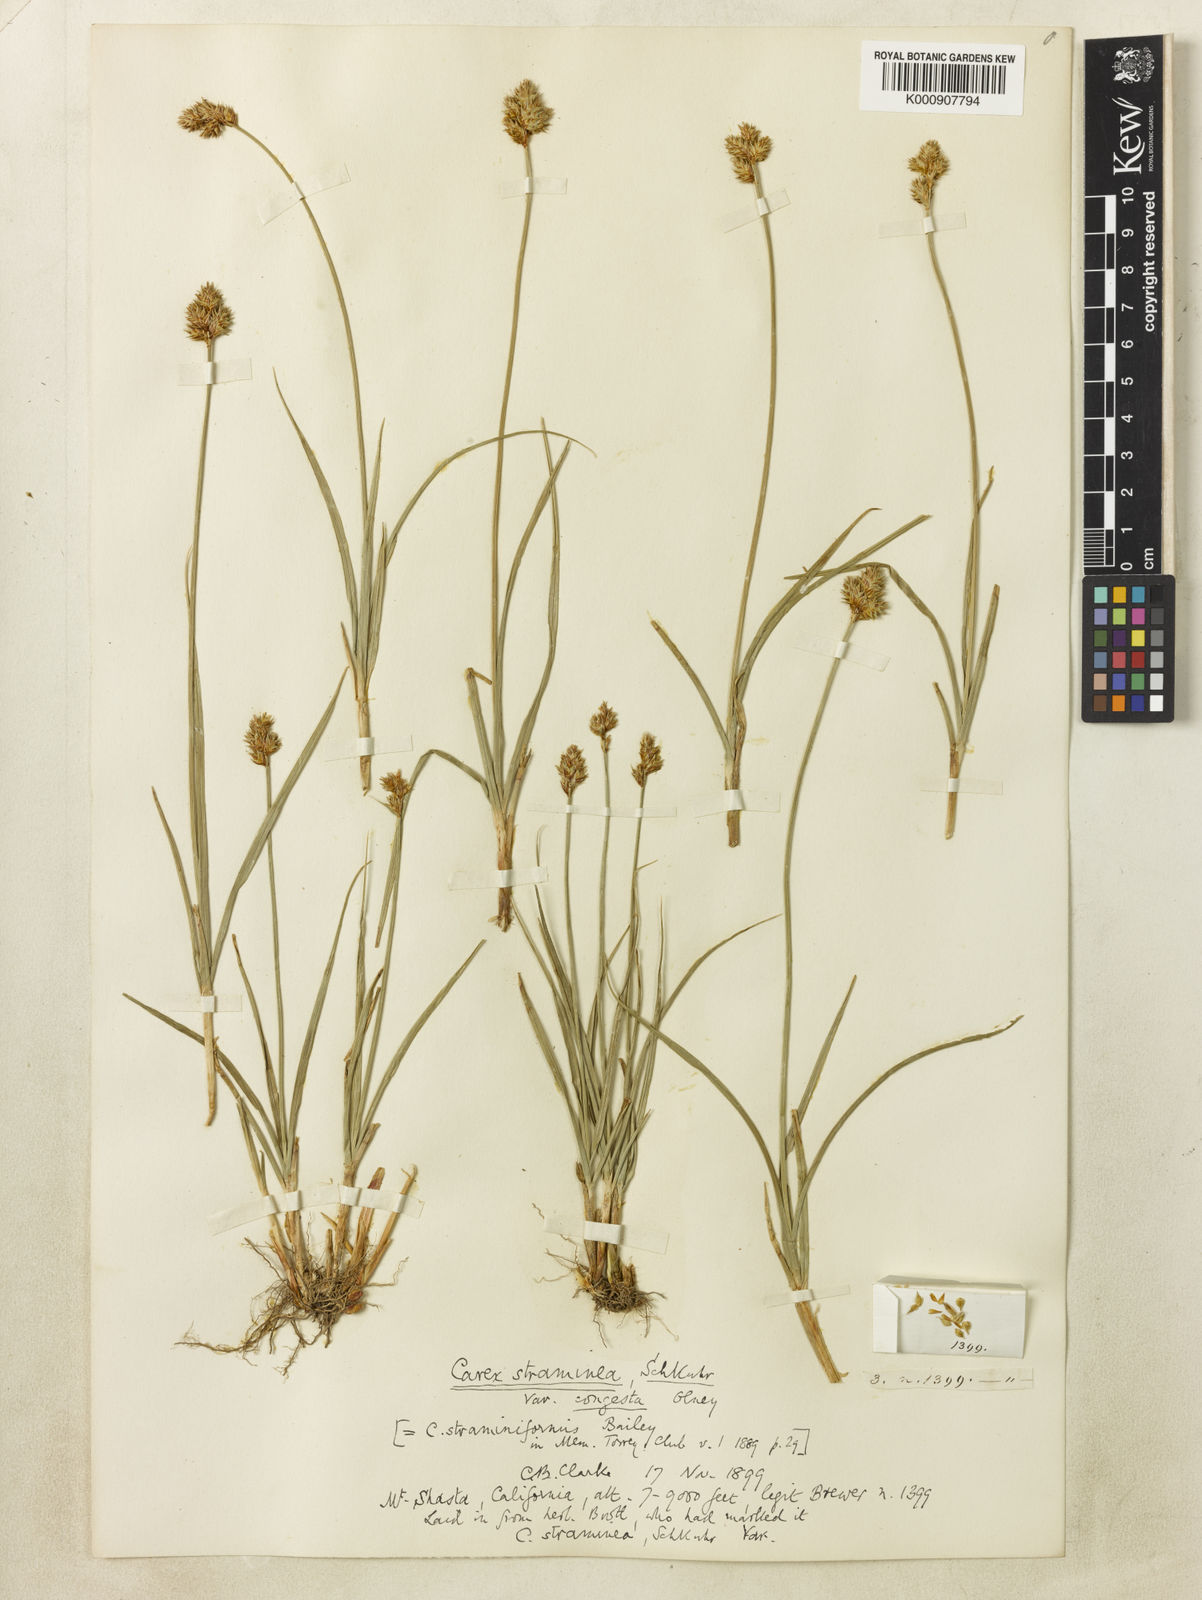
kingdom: Plantae
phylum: Tracheophyta
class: Liliopsida
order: Poales
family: Cyperaceae
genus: Carex
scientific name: Carex straminiformis
